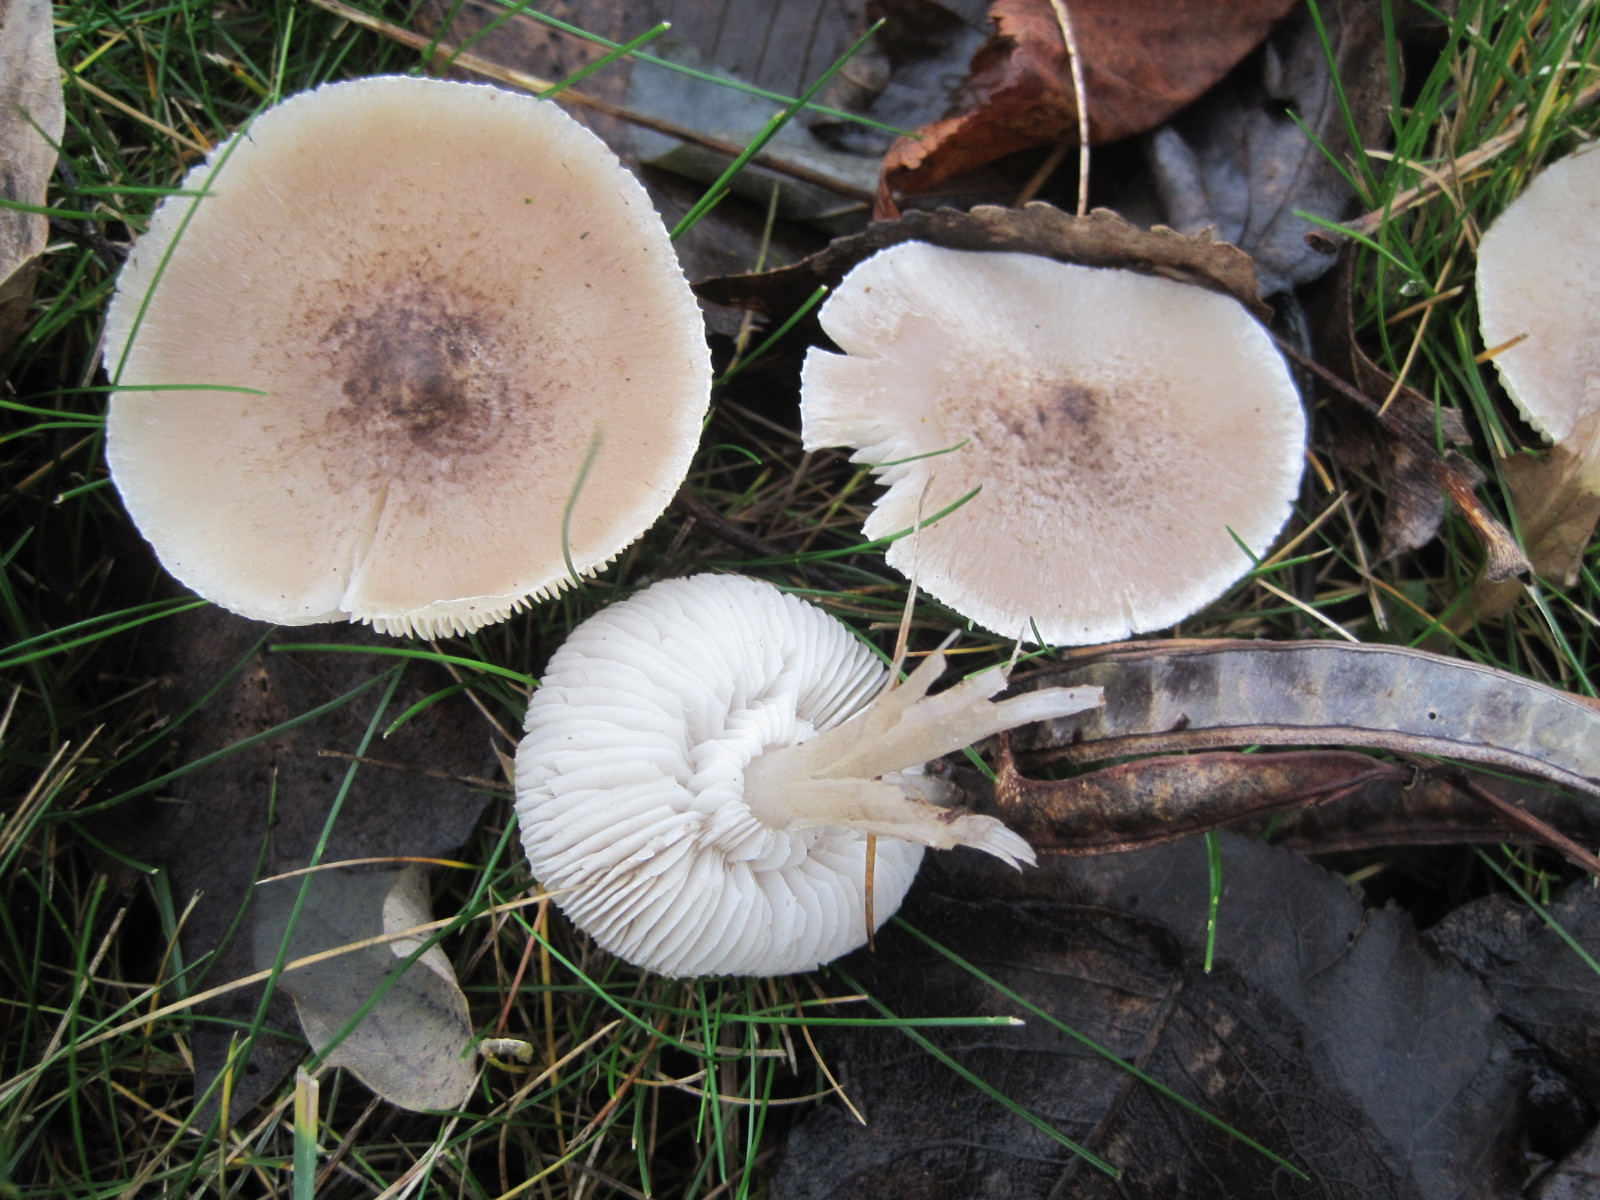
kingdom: Fungi
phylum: Basidiomycota
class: Agaricomycetes
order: Agaricales
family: Tricholomataceae
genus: Tricholoma
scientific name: Tricholoma argyraceum
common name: spids ridderhat
